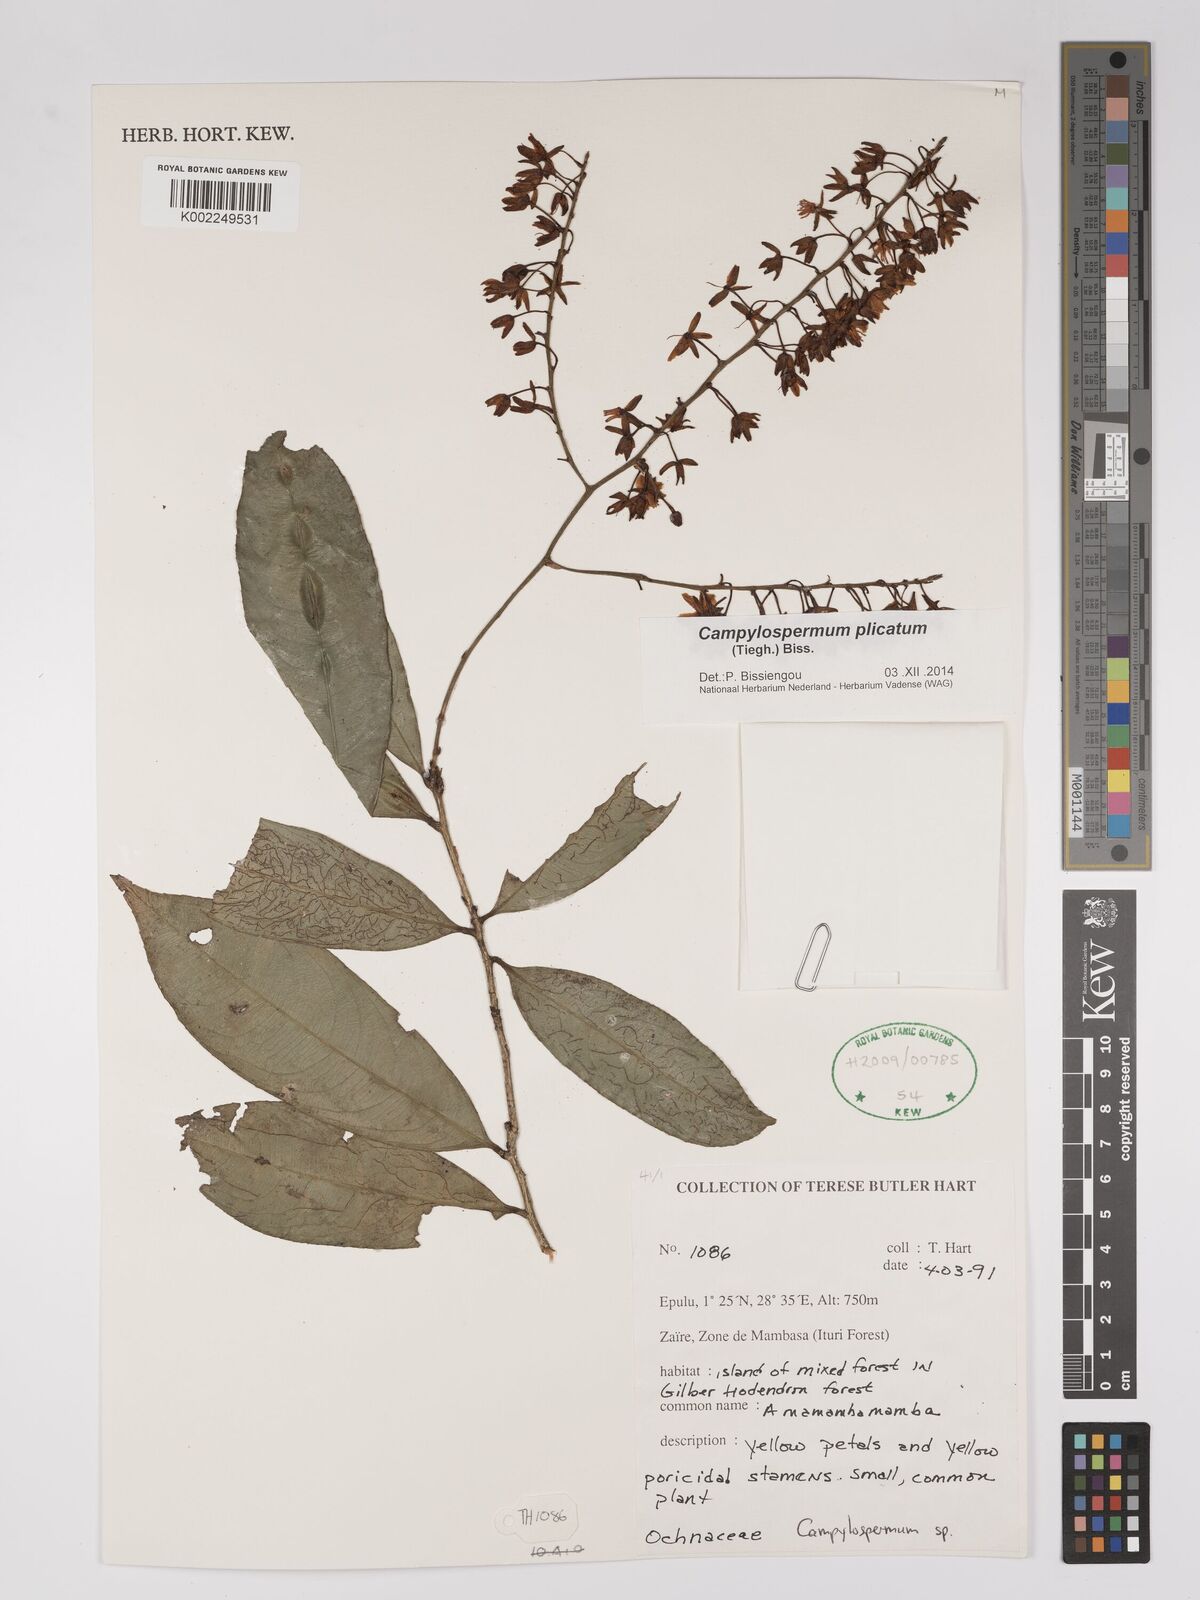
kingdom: Plantae
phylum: Tracheophyta
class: Magnoliopsida
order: Malpighiales
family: Ochnaceae
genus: Campylospermum
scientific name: Campylospermum
